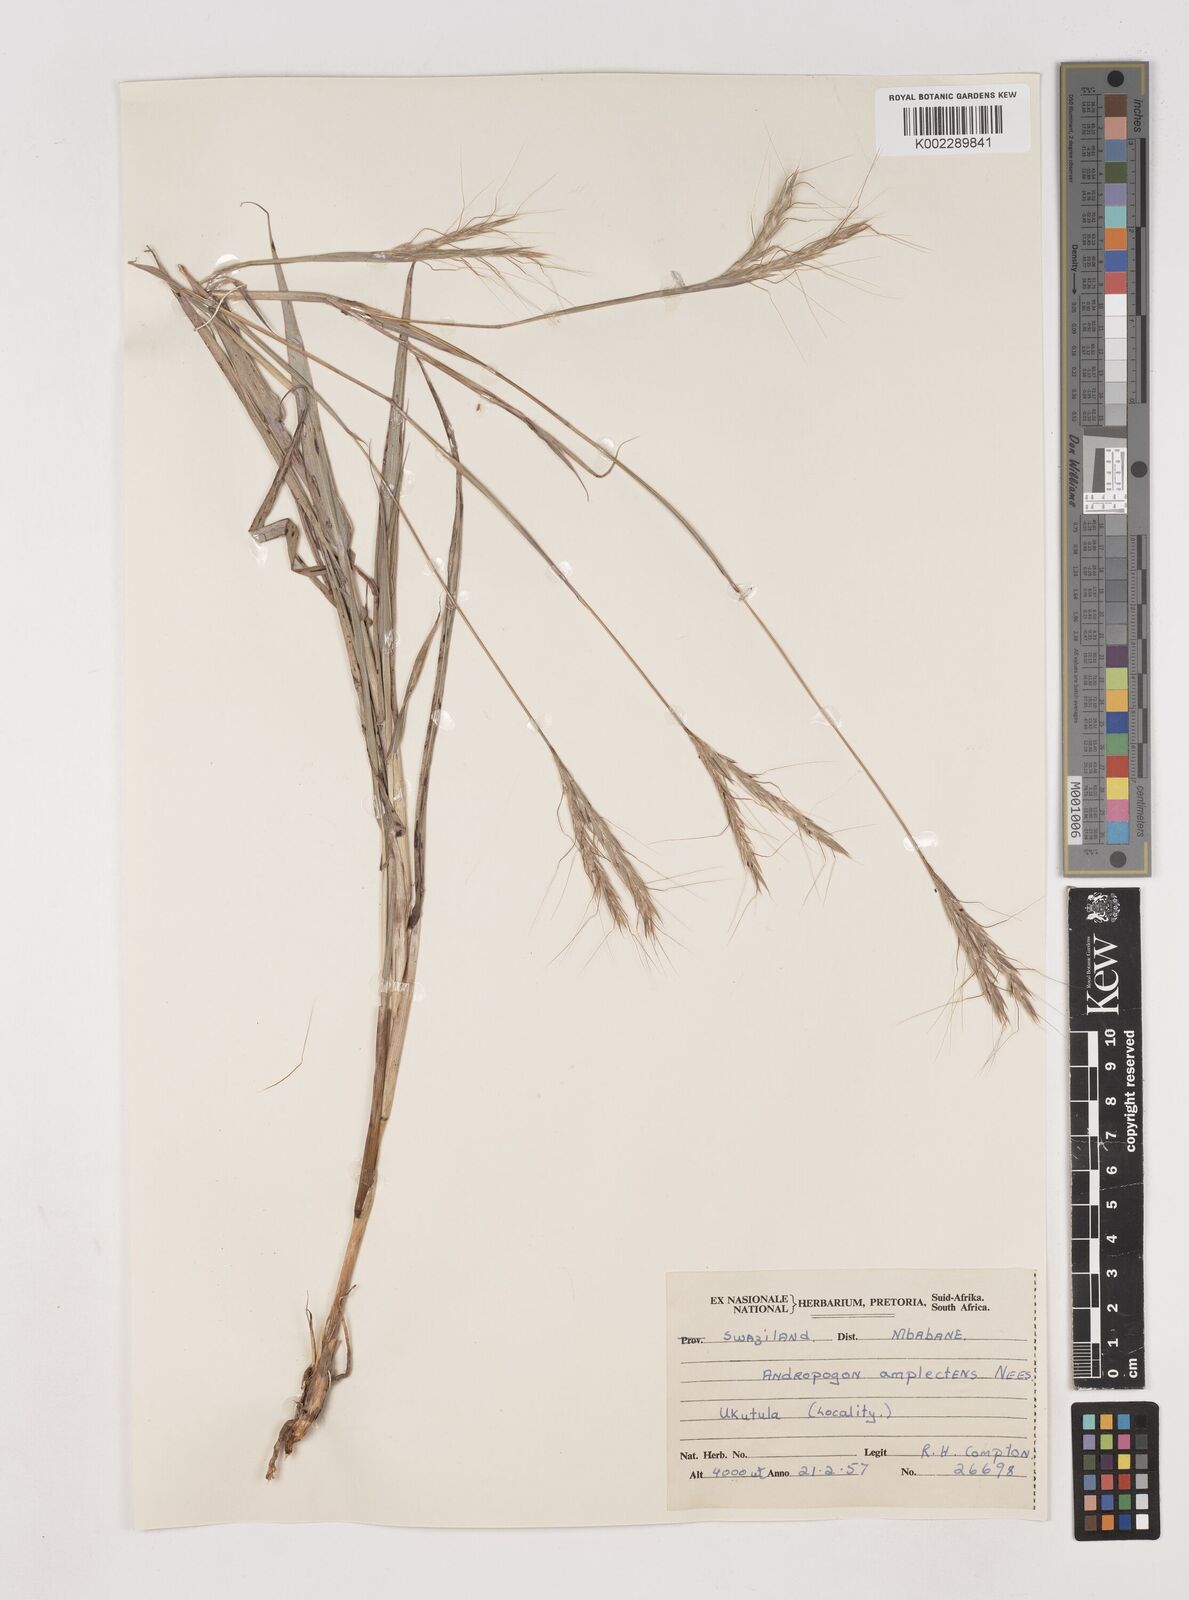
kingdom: Plantae
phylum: Tracheophyta
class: Liliopsida
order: Poales
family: Poaceae
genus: Diheteropogon
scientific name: Diheteropogon amplectens
